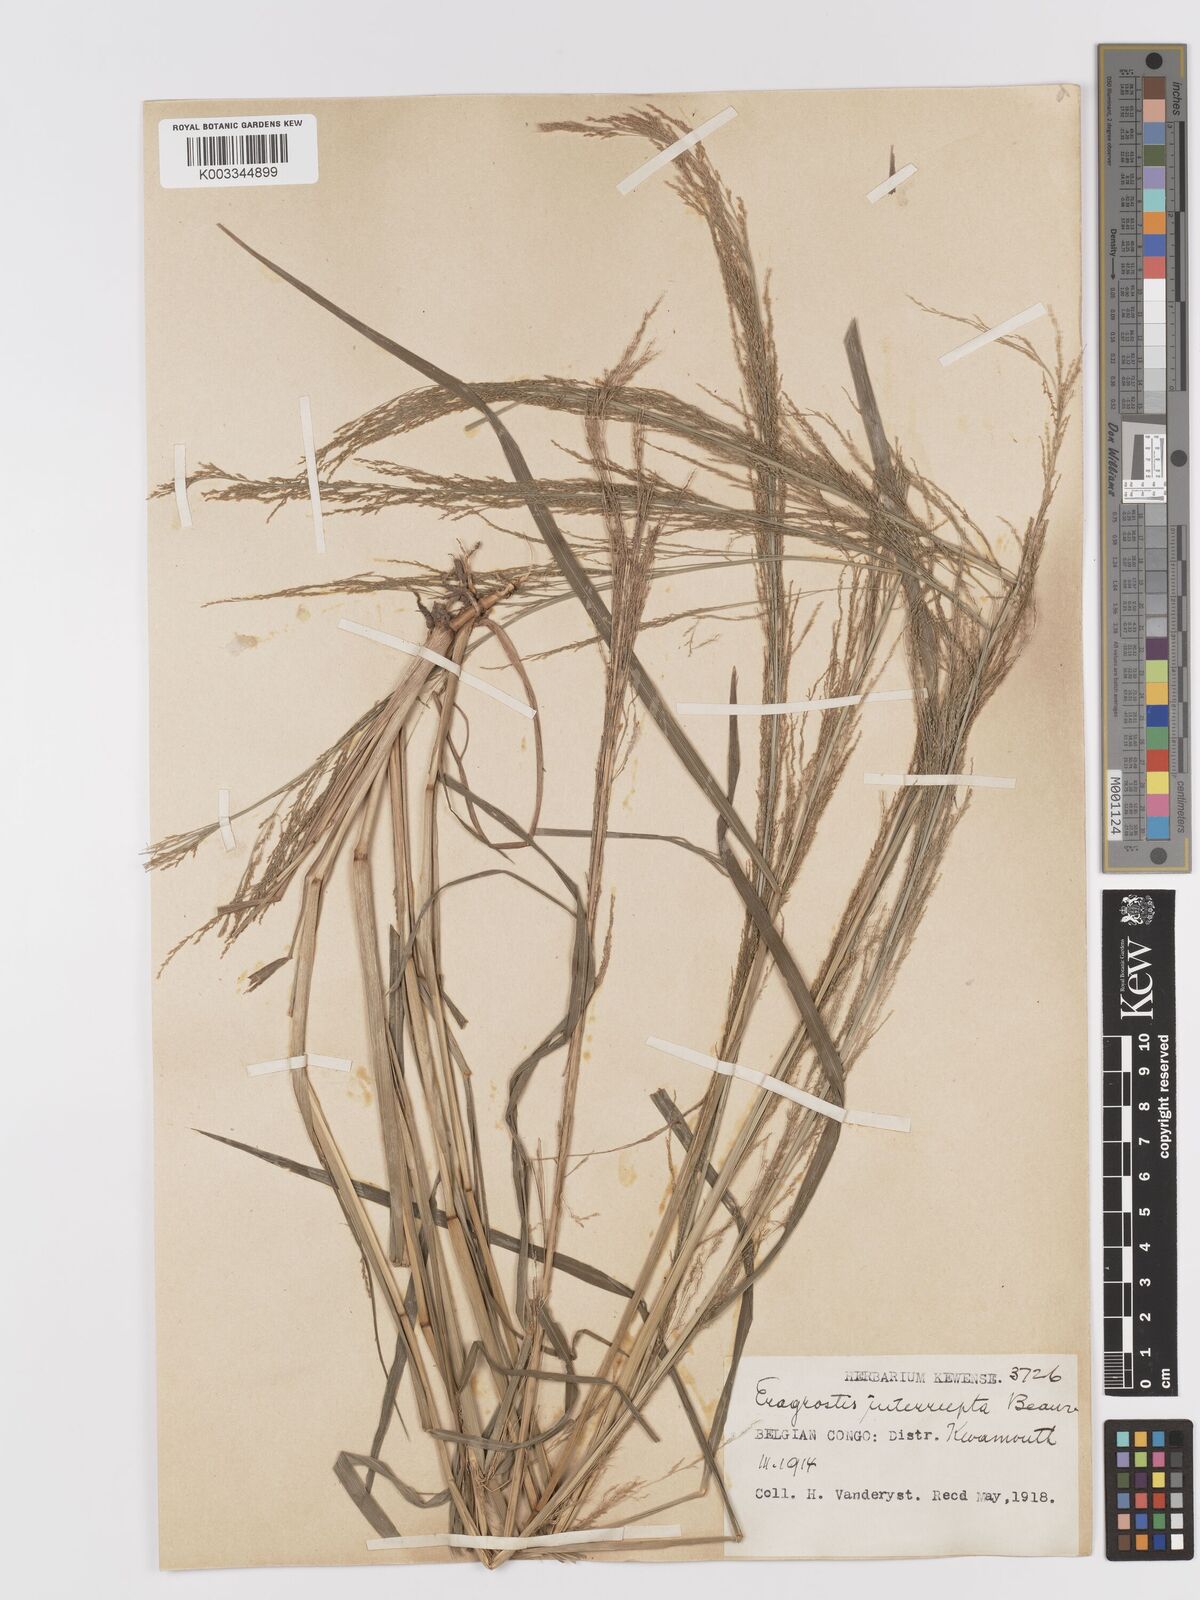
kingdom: Plantae
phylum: Tracheophyta
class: Liliopsida
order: Poales
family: Poaceae
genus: Eragrostis
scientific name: Eragrostis japonica
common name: Pond lovegrass
